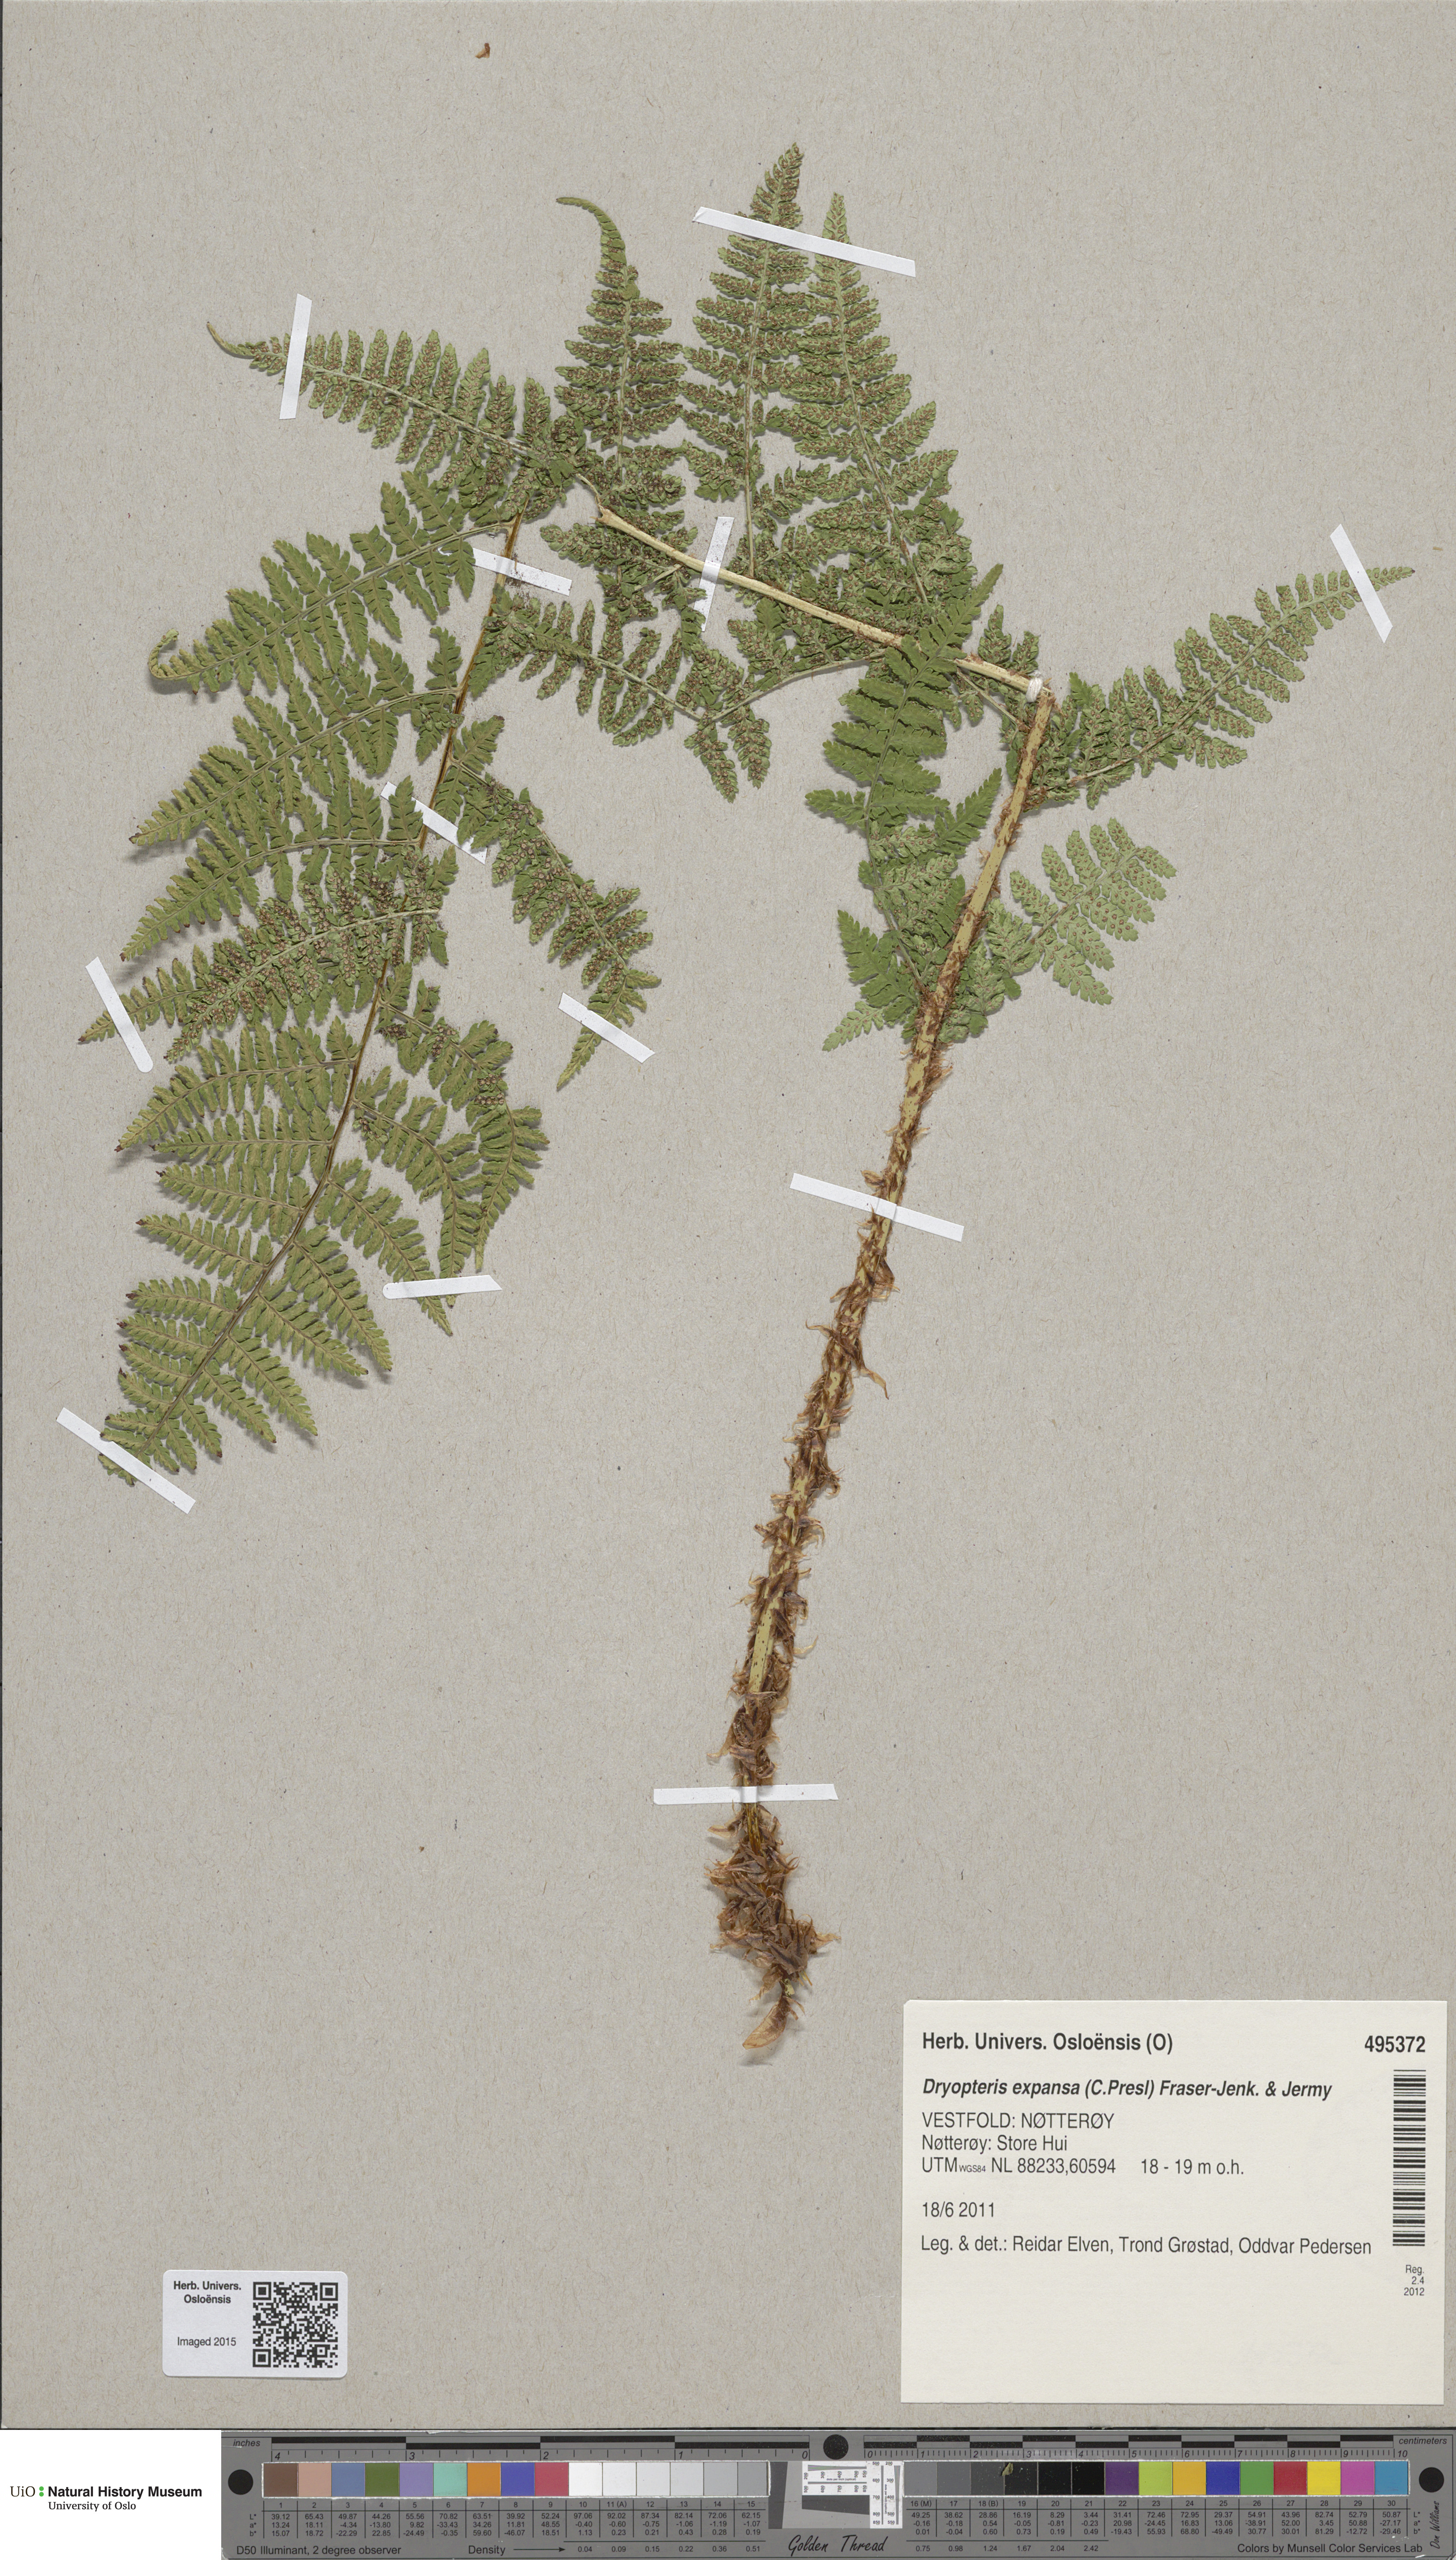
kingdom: Plantae
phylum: Tracheophyta
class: Polypodiopsida
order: Polypodiales
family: Dryopteridaceae
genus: Dryopteris
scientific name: Dryopteris expansa
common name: Northern buckler fern
